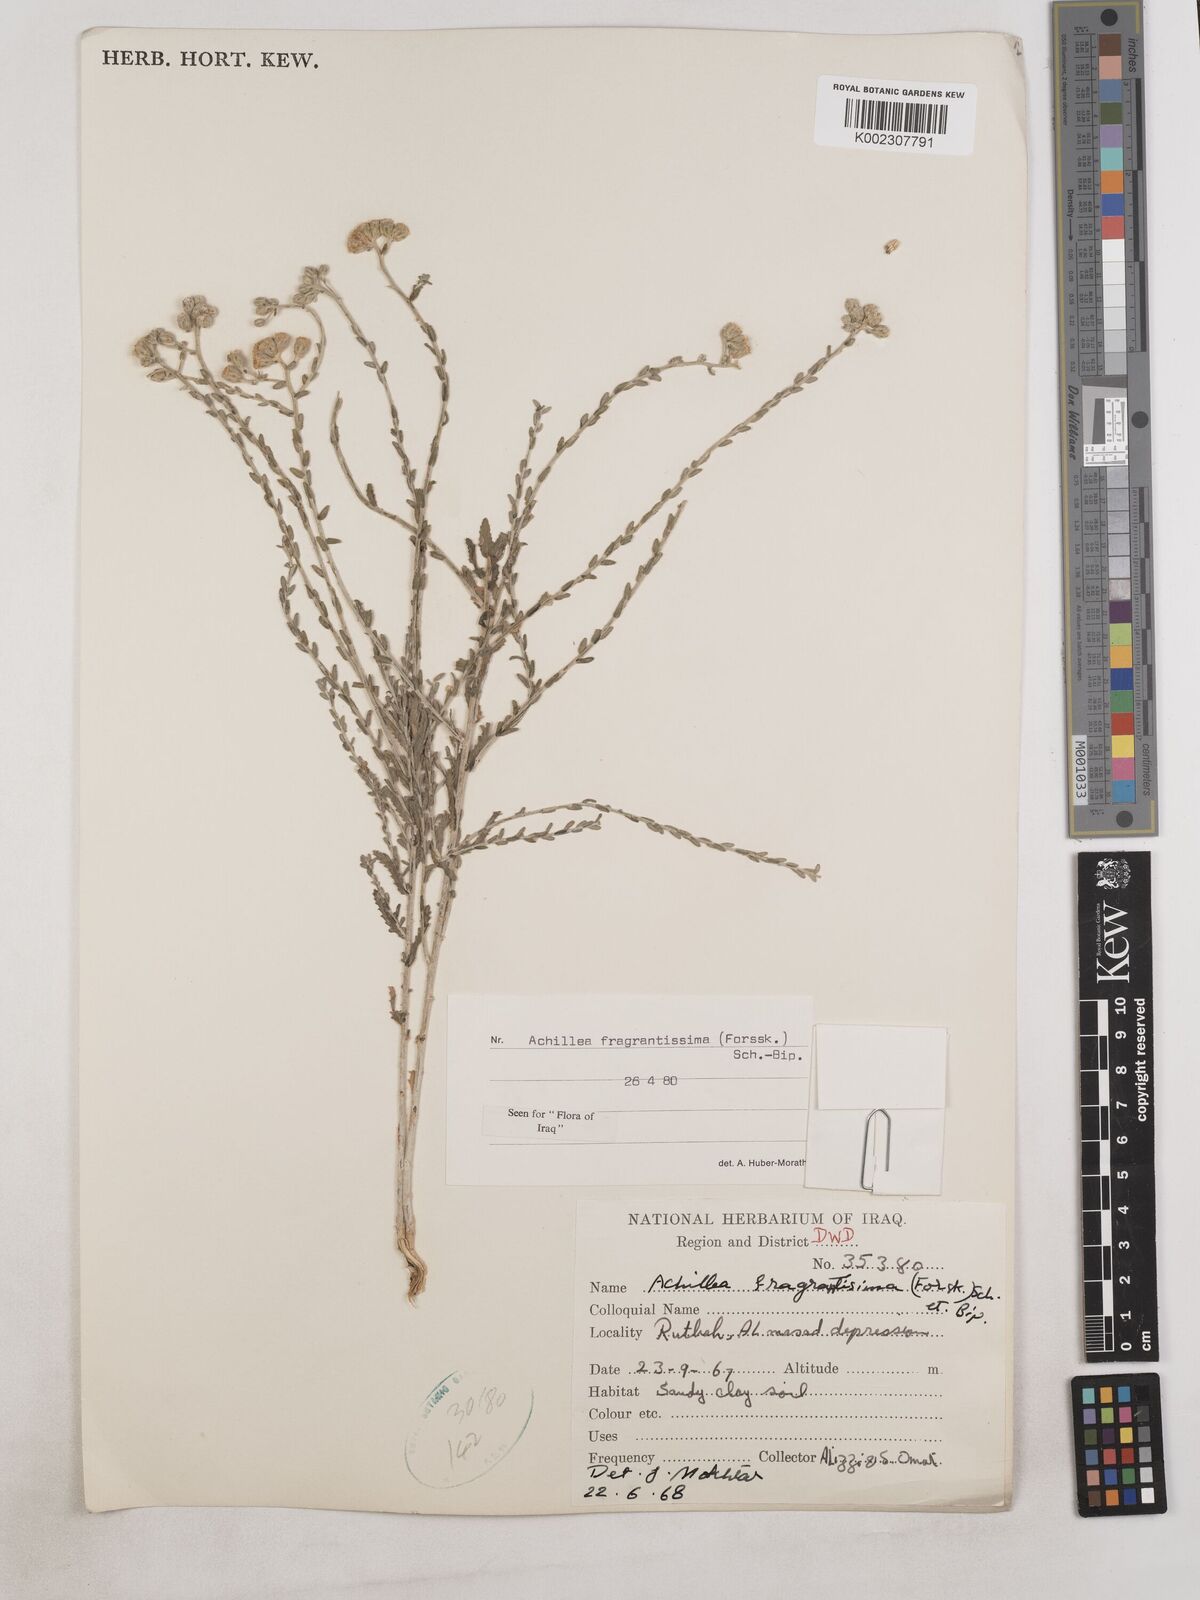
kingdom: Plantae
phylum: Tracheophyta
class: Magnoliopsida
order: Asterales
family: Asteraceae
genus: Achillea
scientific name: Achillea fragrantissima
